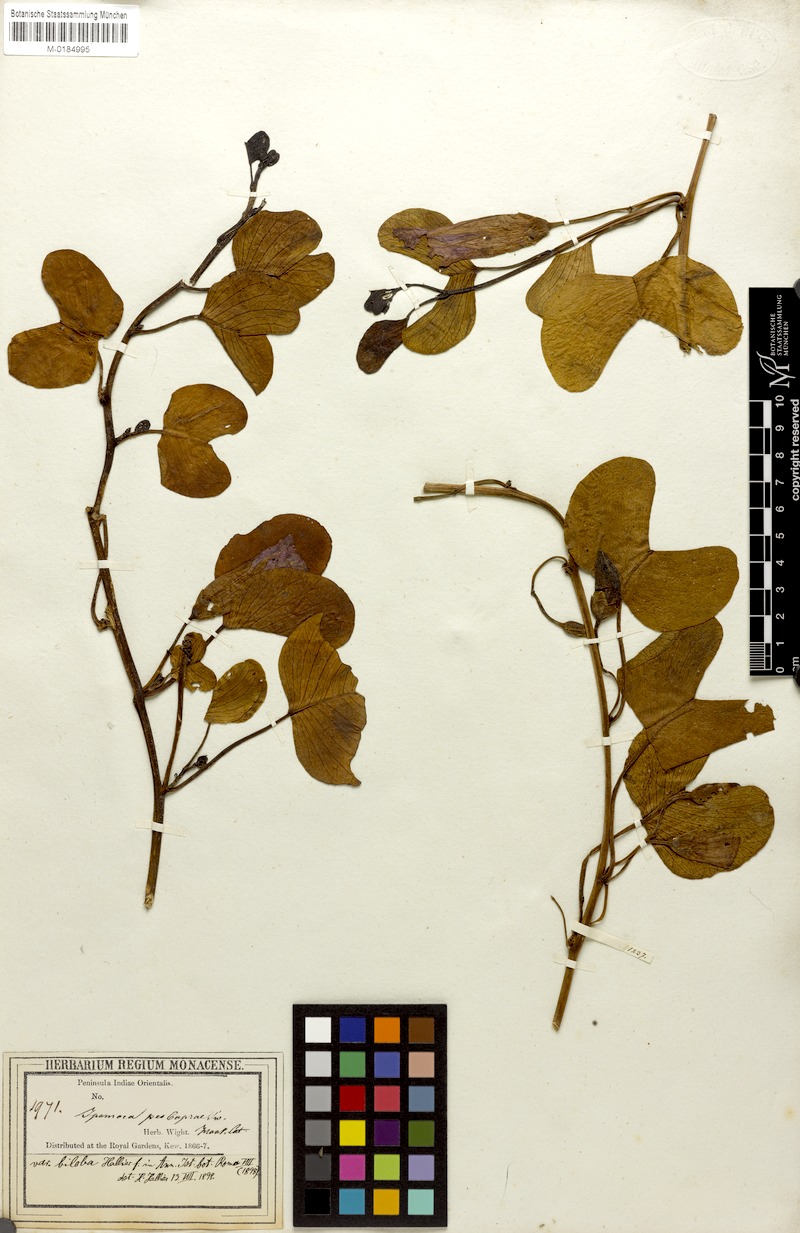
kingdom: Plantae
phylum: Tracheophyta
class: Magnoliopsida
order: Solanales
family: Convolvulaceae
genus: Ipomoea
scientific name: Ipomoea pes-caprae
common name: Beach morning glory
